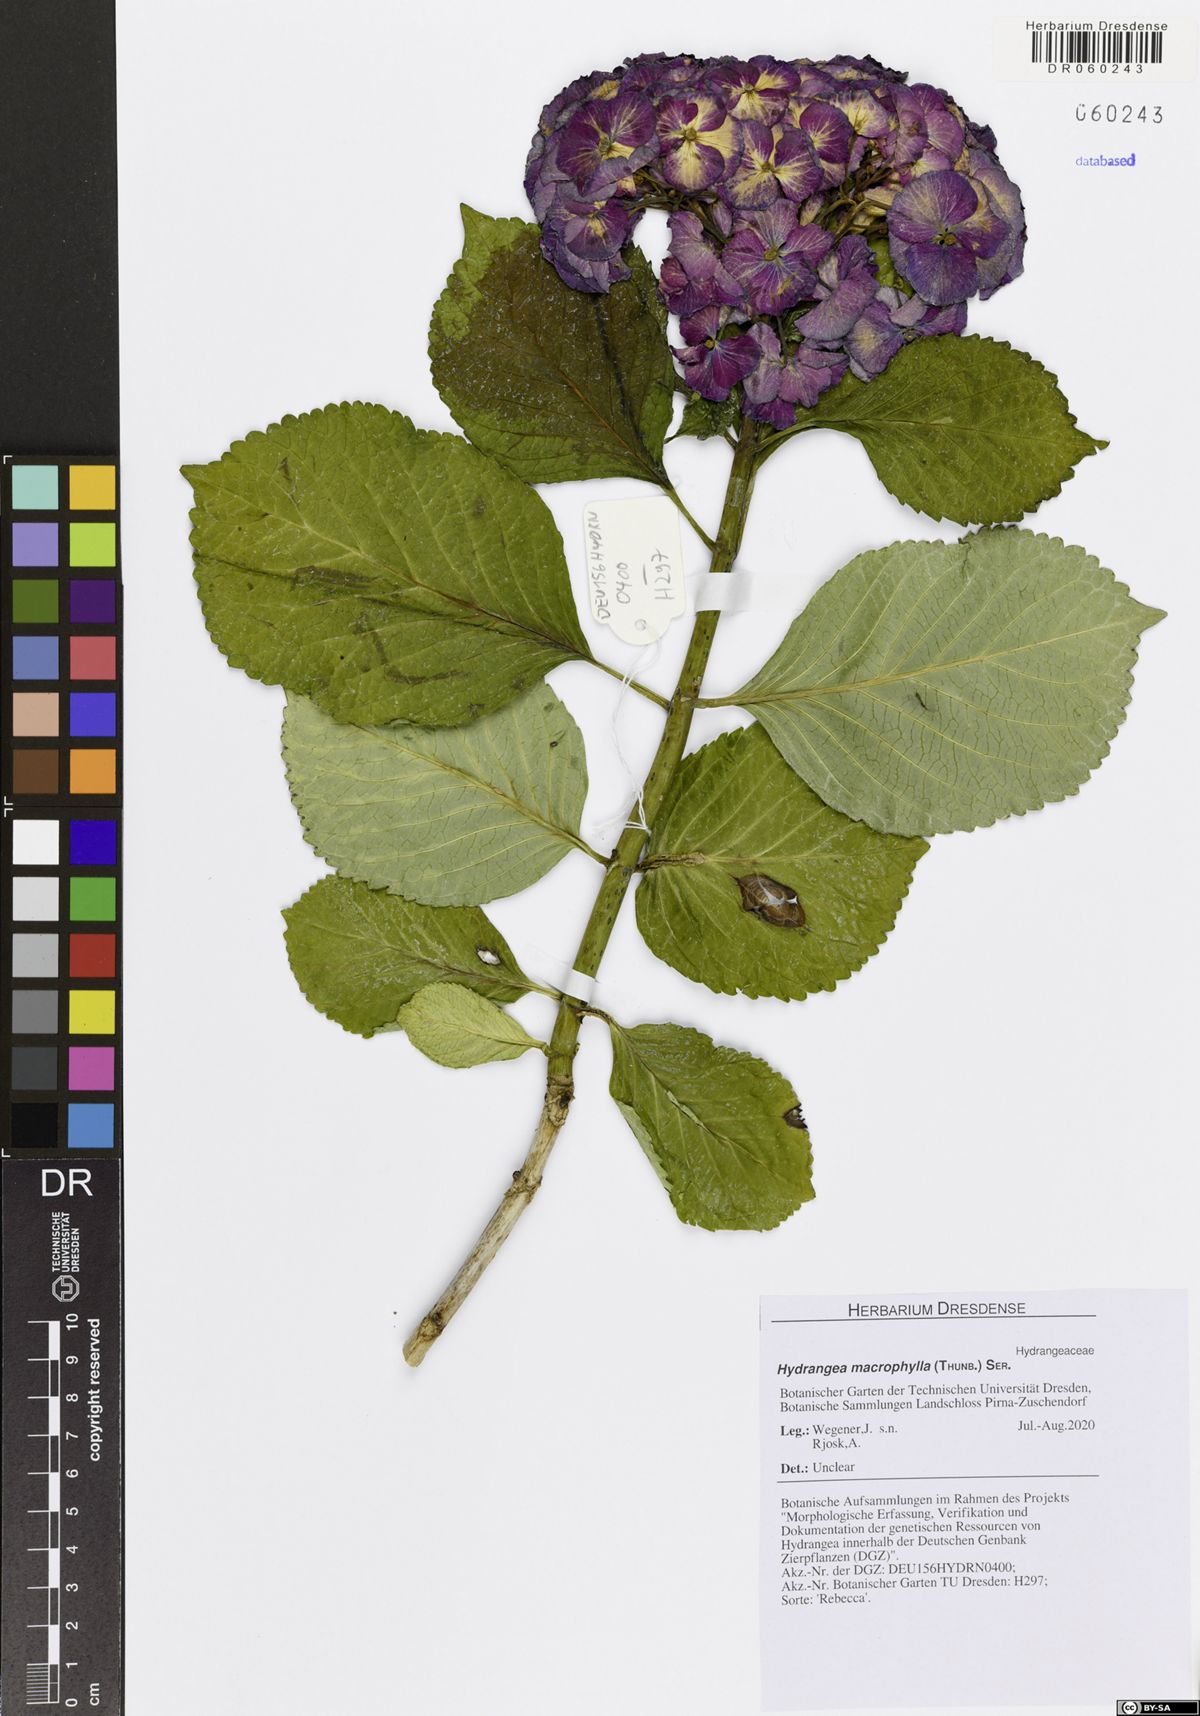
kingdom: Plantae
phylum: Tracheophyta
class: Magnoliopsida
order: Cornales
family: Hydrangeaceae
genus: Hydrangea
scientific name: Hydrangea macrophylla
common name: Hydrangea
